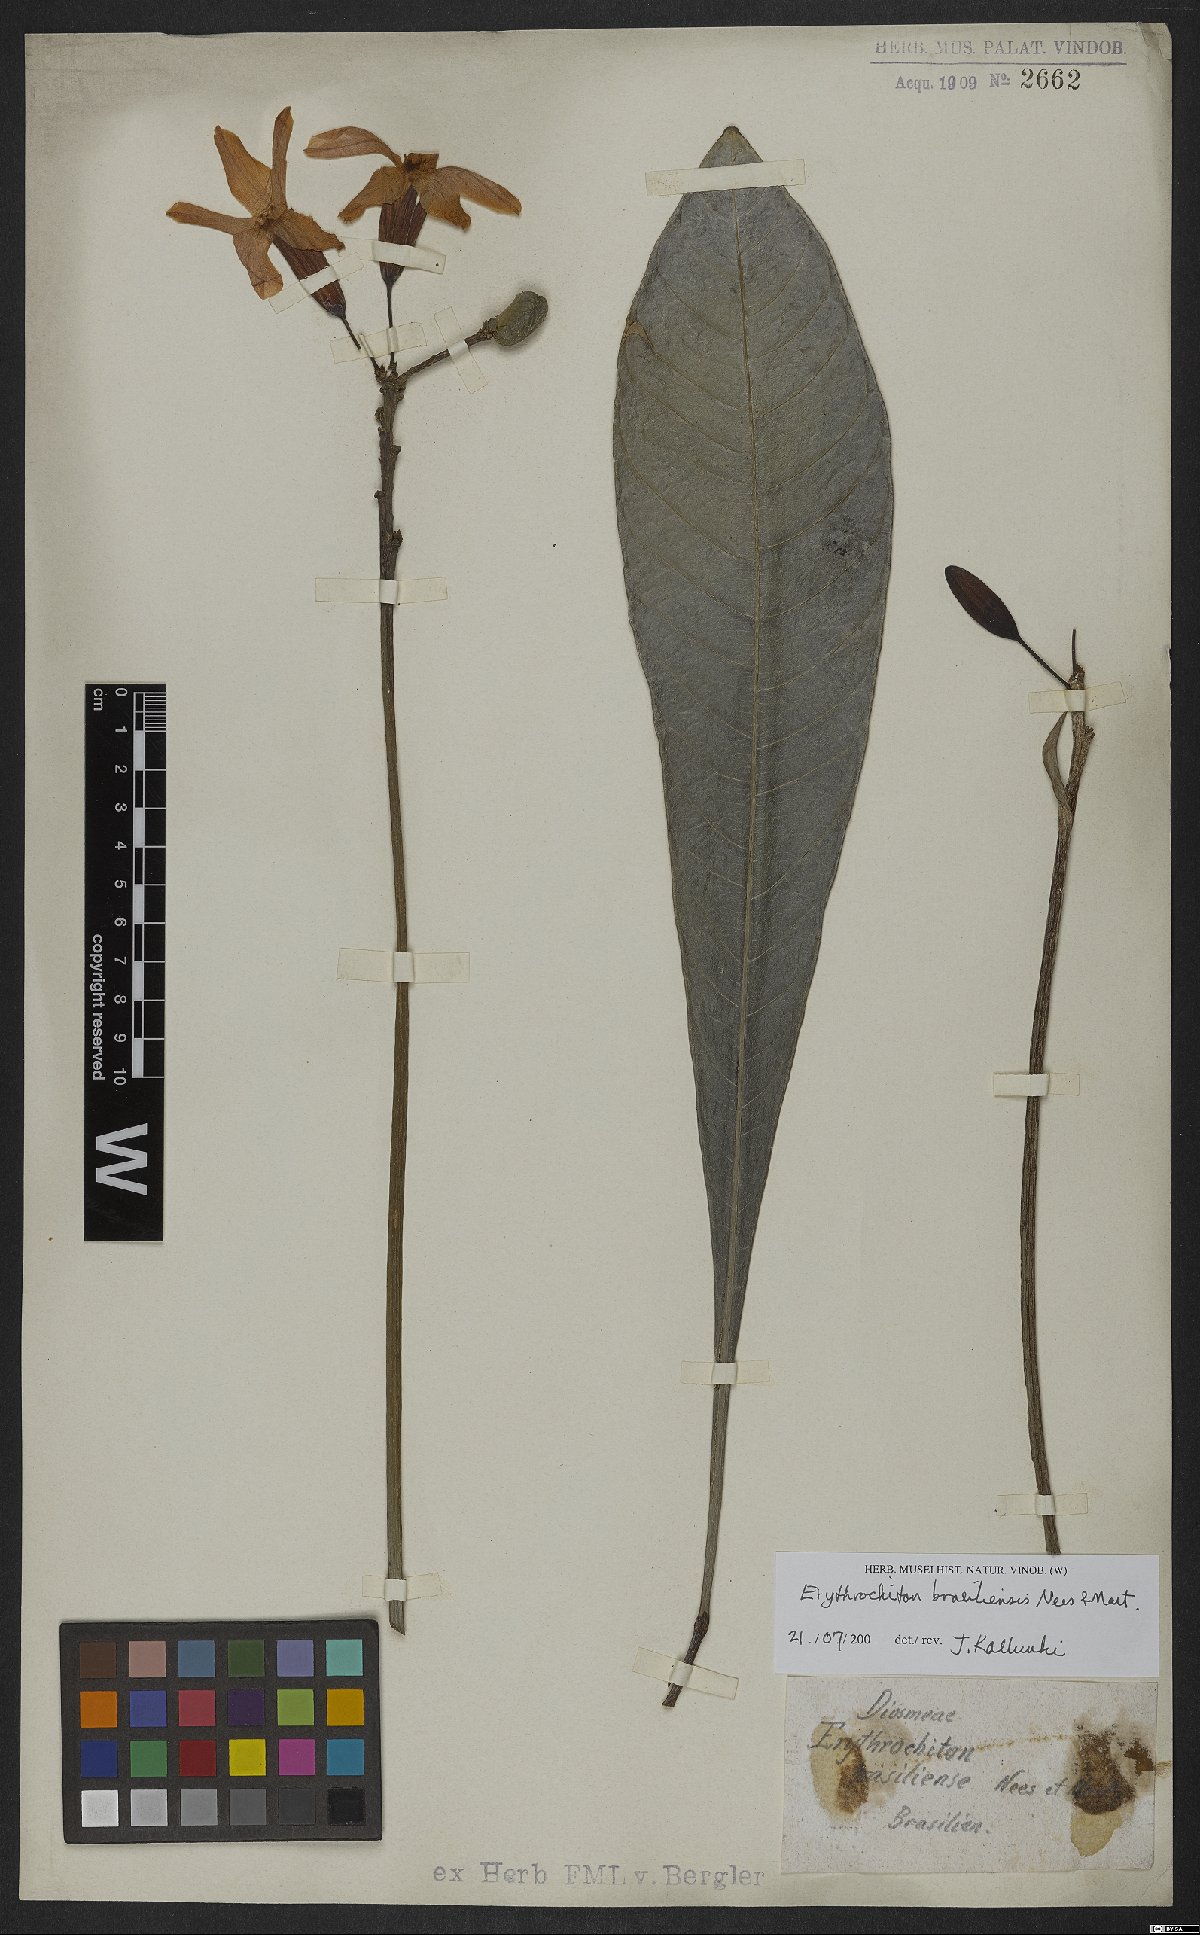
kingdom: Plantae
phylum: Tracheophyta
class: Magnoliopsida
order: Sapindales
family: Rutaceae
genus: Erythrochiton
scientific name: Erythrochiton brasiliensis
